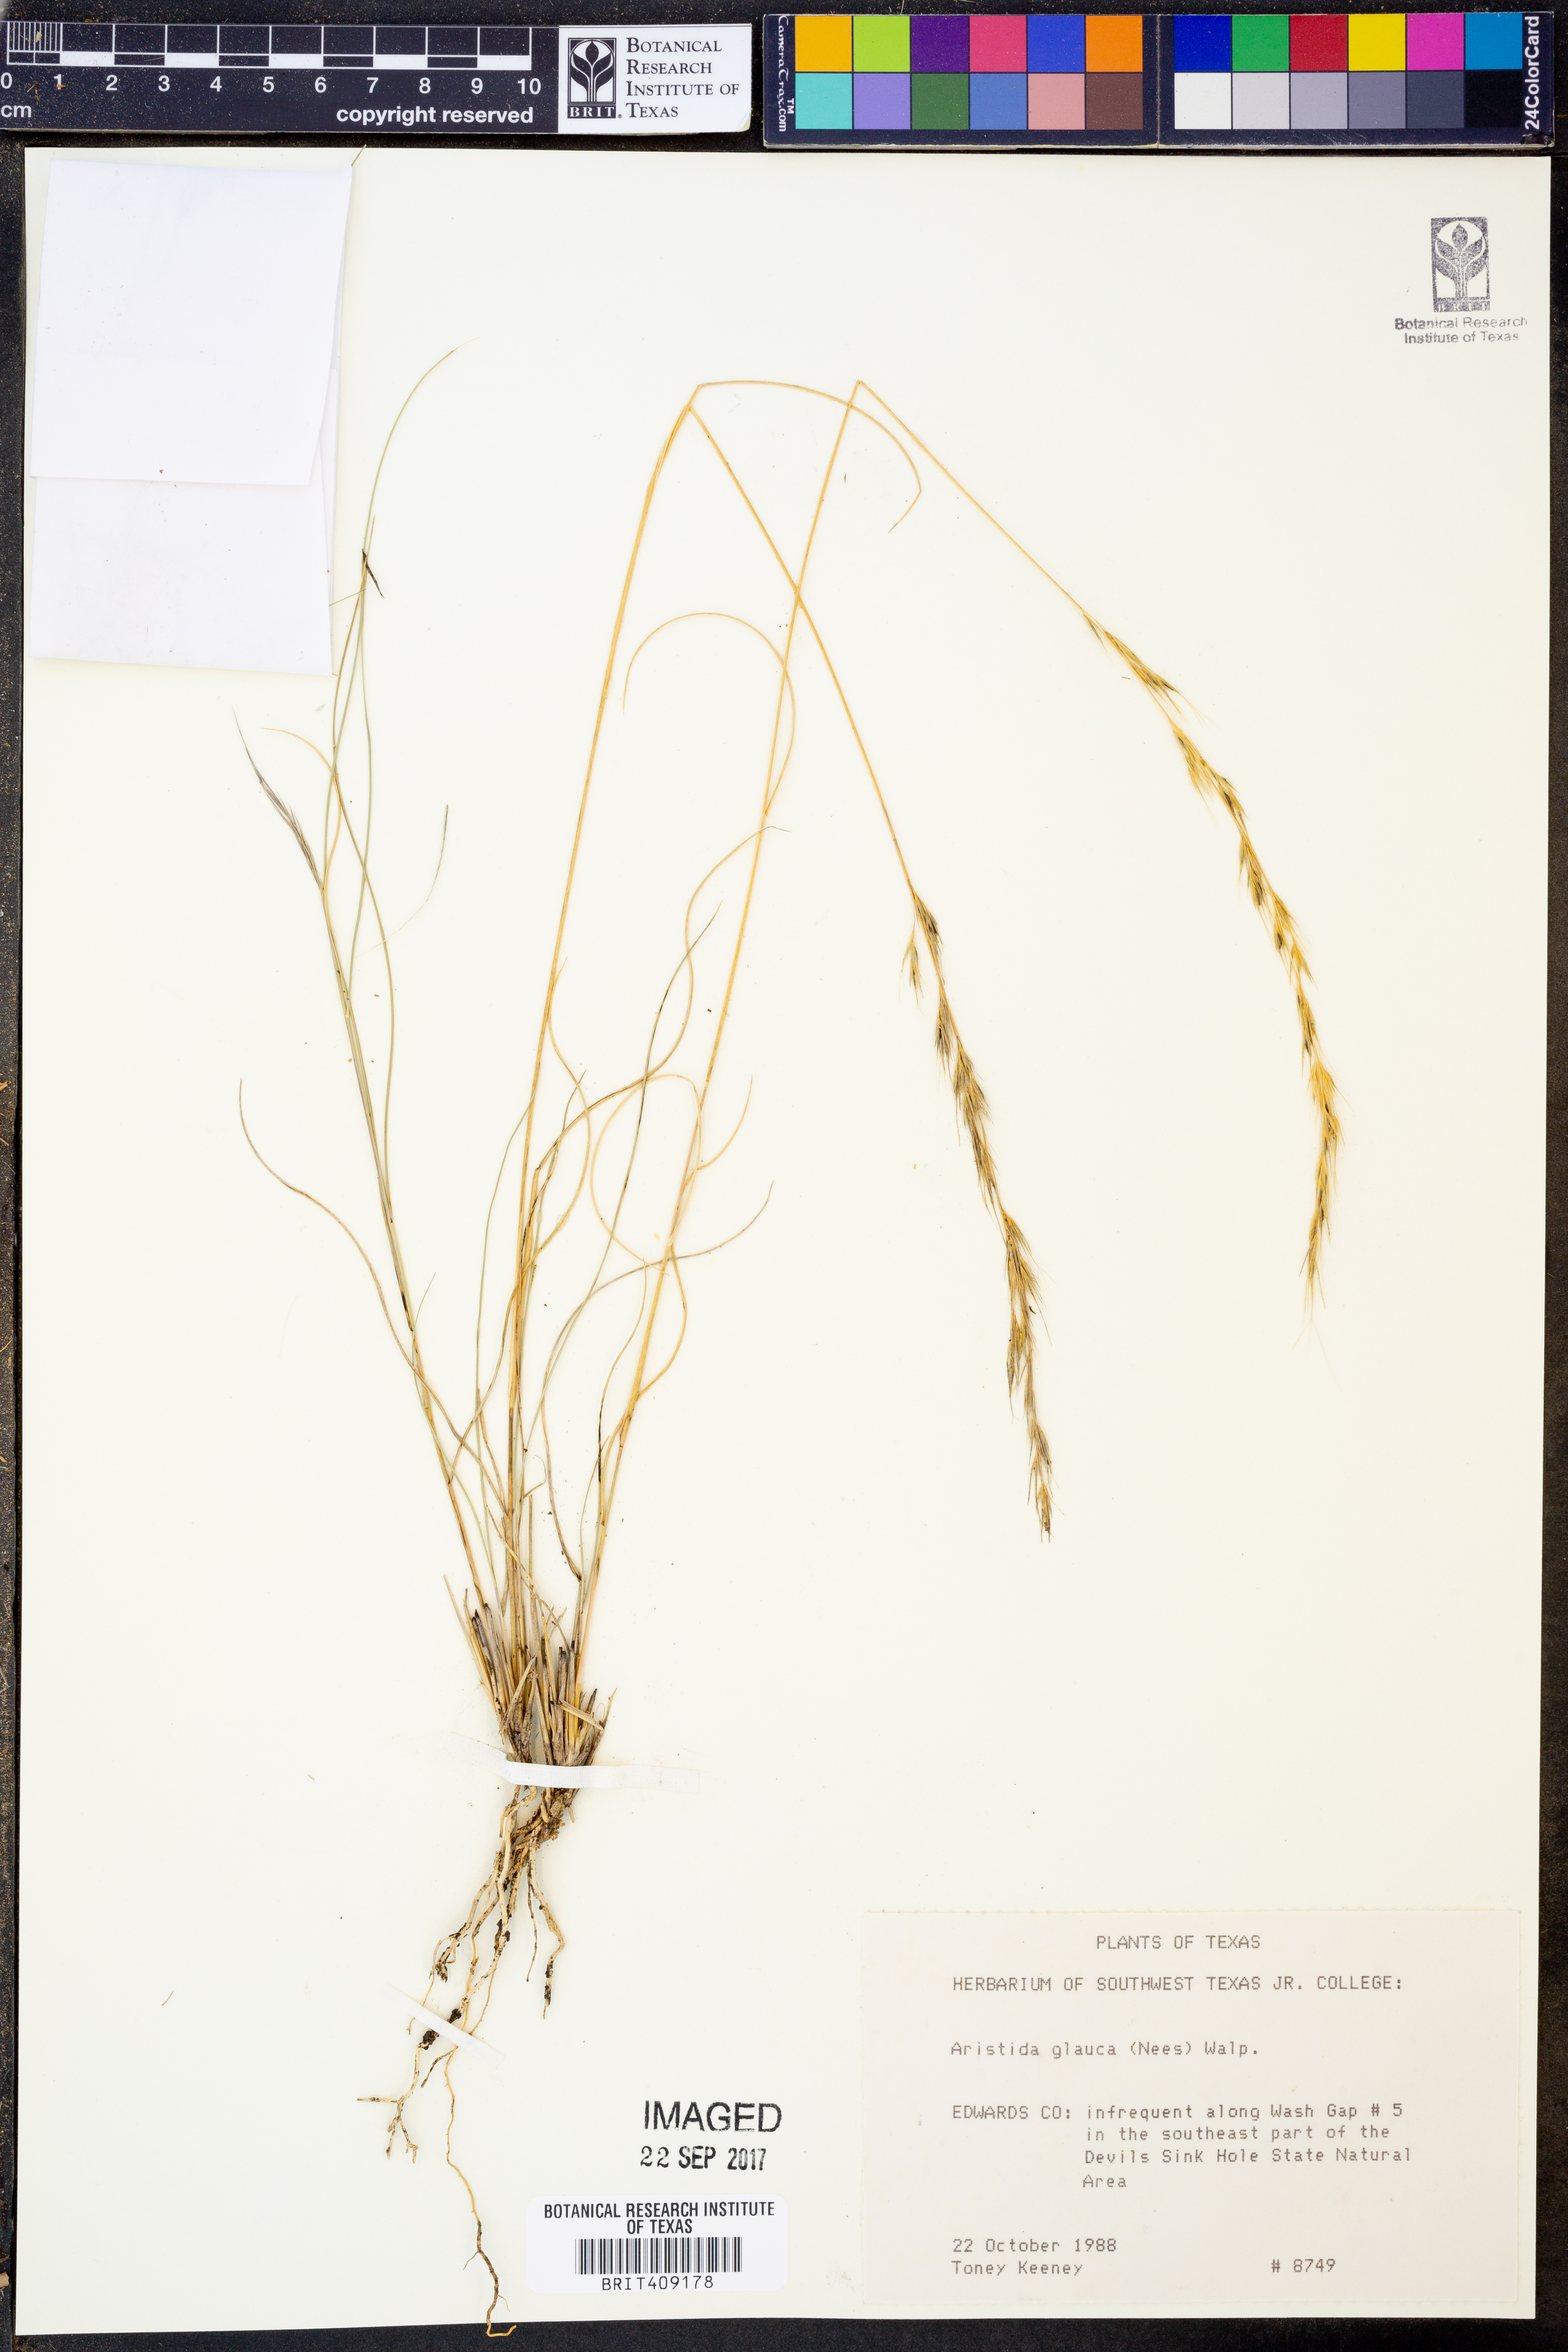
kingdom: Plantae
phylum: Tracheophyta
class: Liliopsida
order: Poales
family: Poaceae
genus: Aristida
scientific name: Aristida glauca
